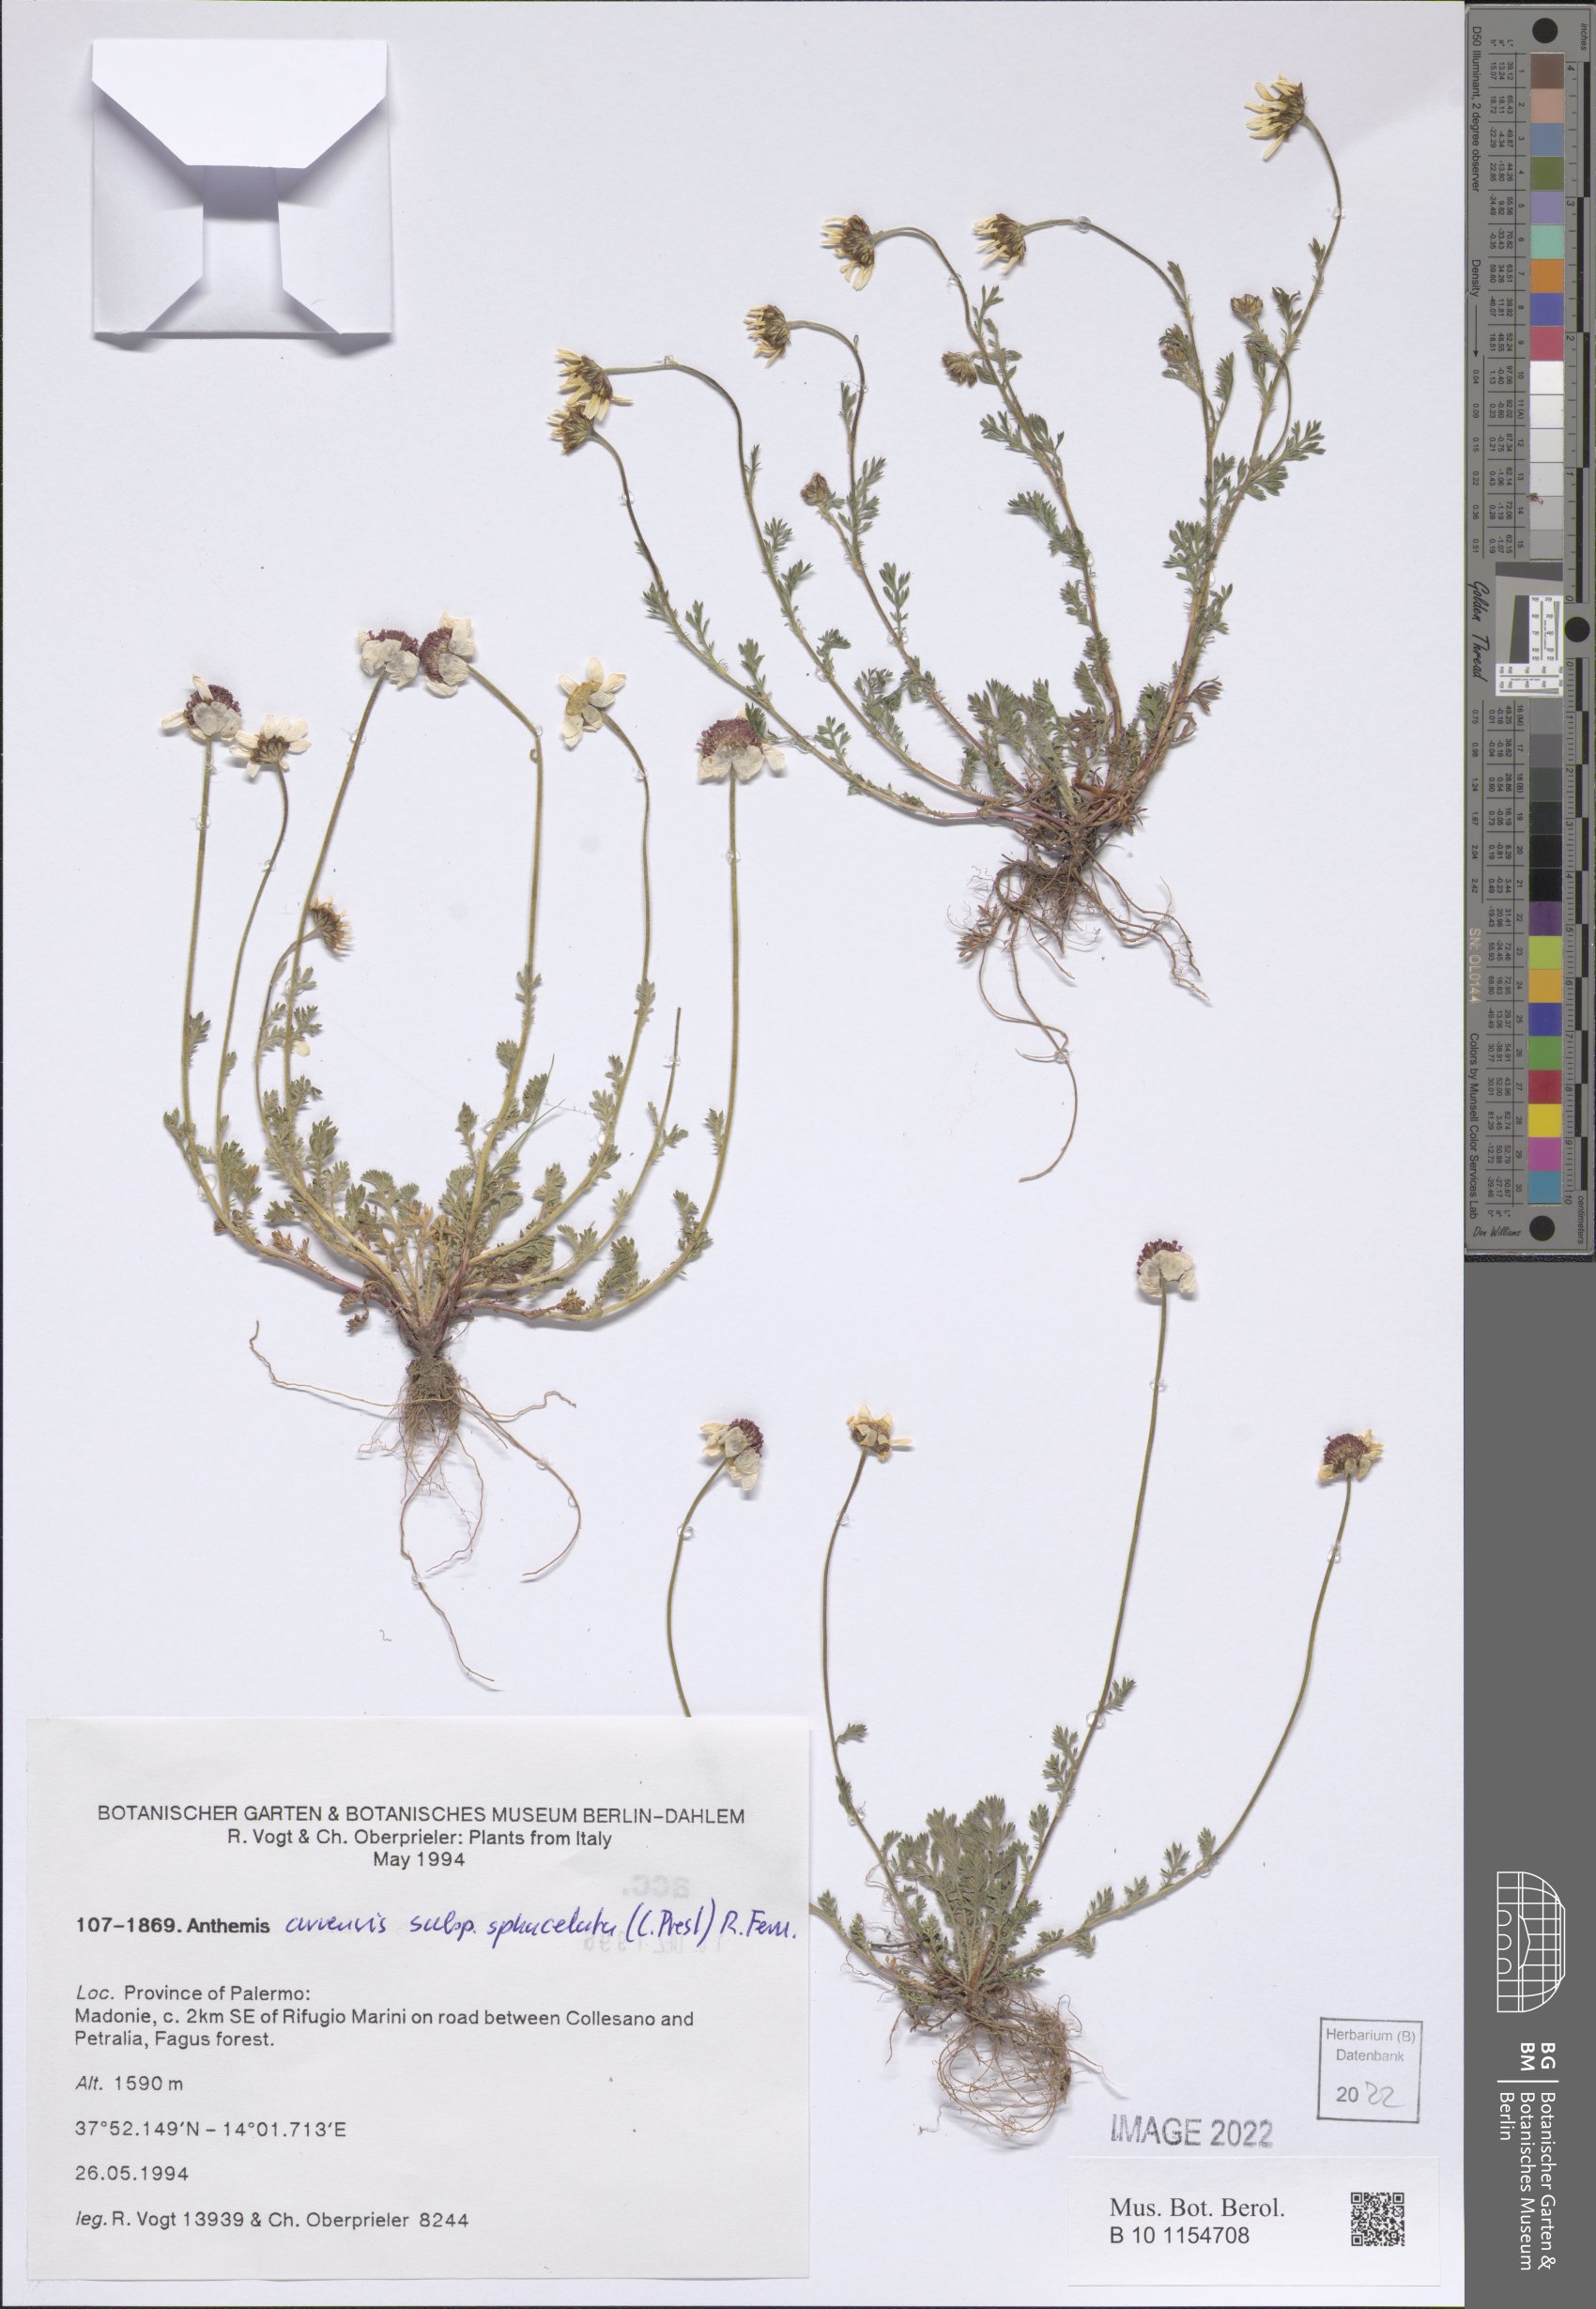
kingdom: Plantae
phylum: Tracheophyta
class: Magnoliopsida
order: Asterales
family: Asteraceae
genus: Anthemis
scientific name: Anthemis arvensis
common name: Corn chamomile
